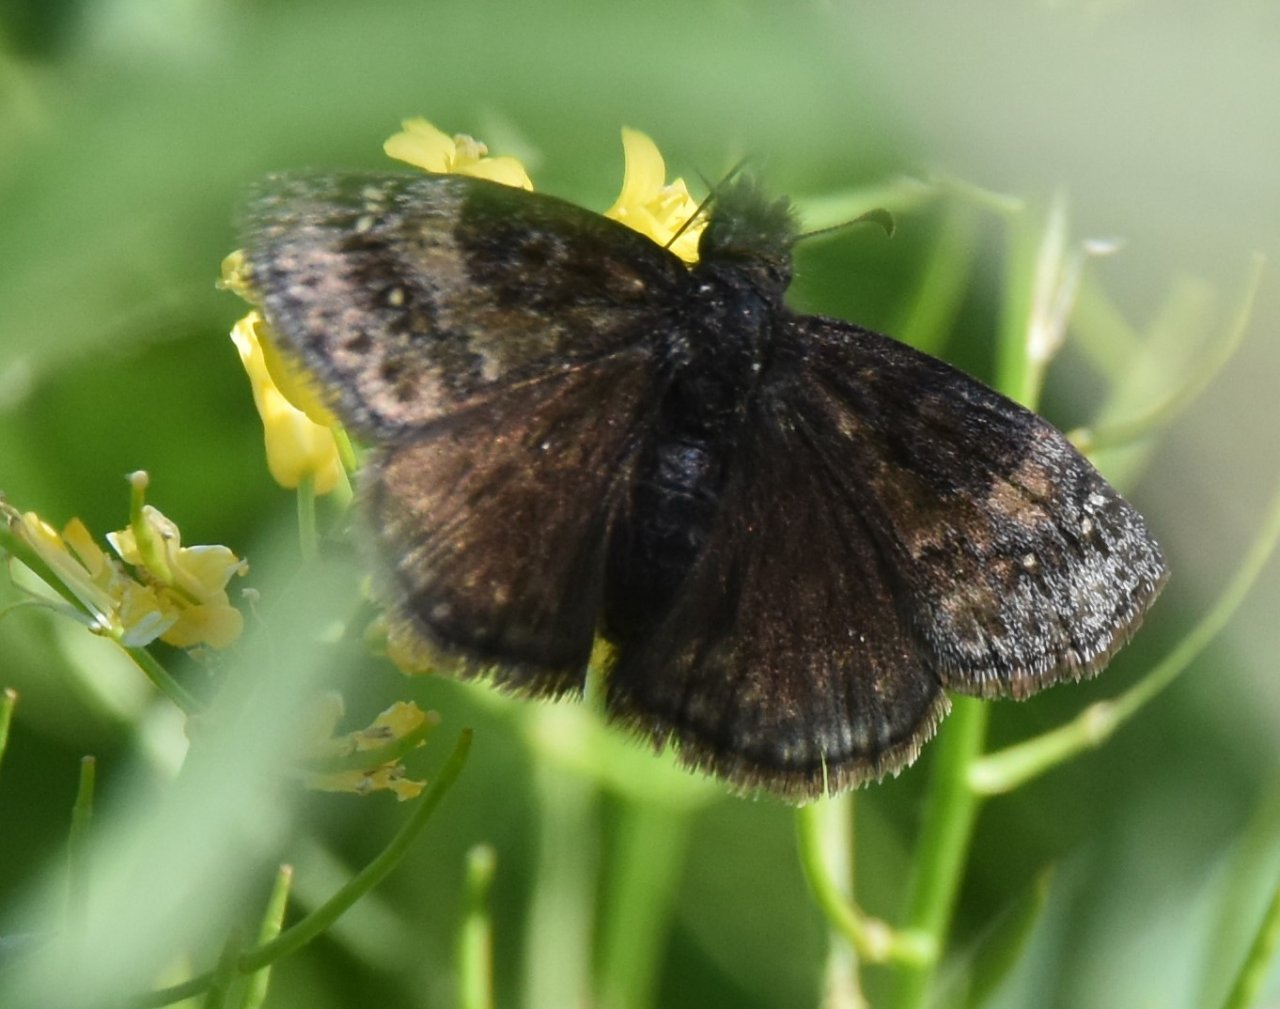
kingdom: Animalia
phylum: Arthropoda
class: Insecta
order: Lepidoptera
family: Hesperiidae
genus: Gesta
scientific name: Gesta
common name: Wild Indigo Duskywing
